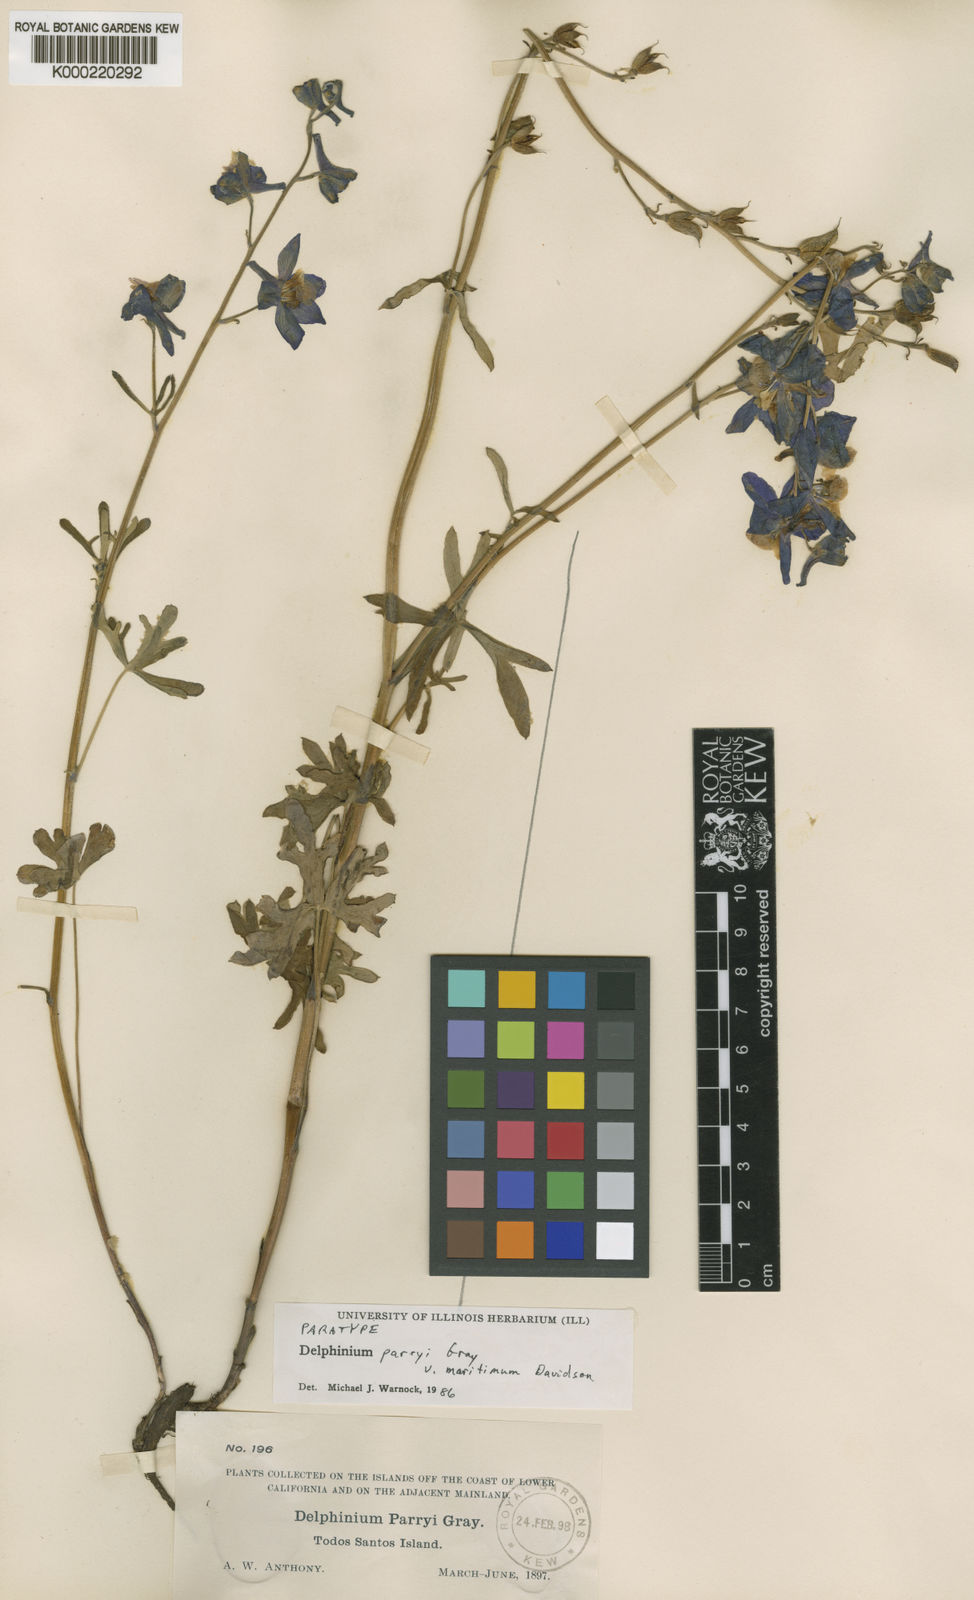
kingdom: Plantae
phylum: Tracheophyta
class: Magnoliopsida
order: Ranunculales
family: Ranunculaceae
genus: Delphinium
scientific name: Delphinium parryi
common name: Parry's larkspur
